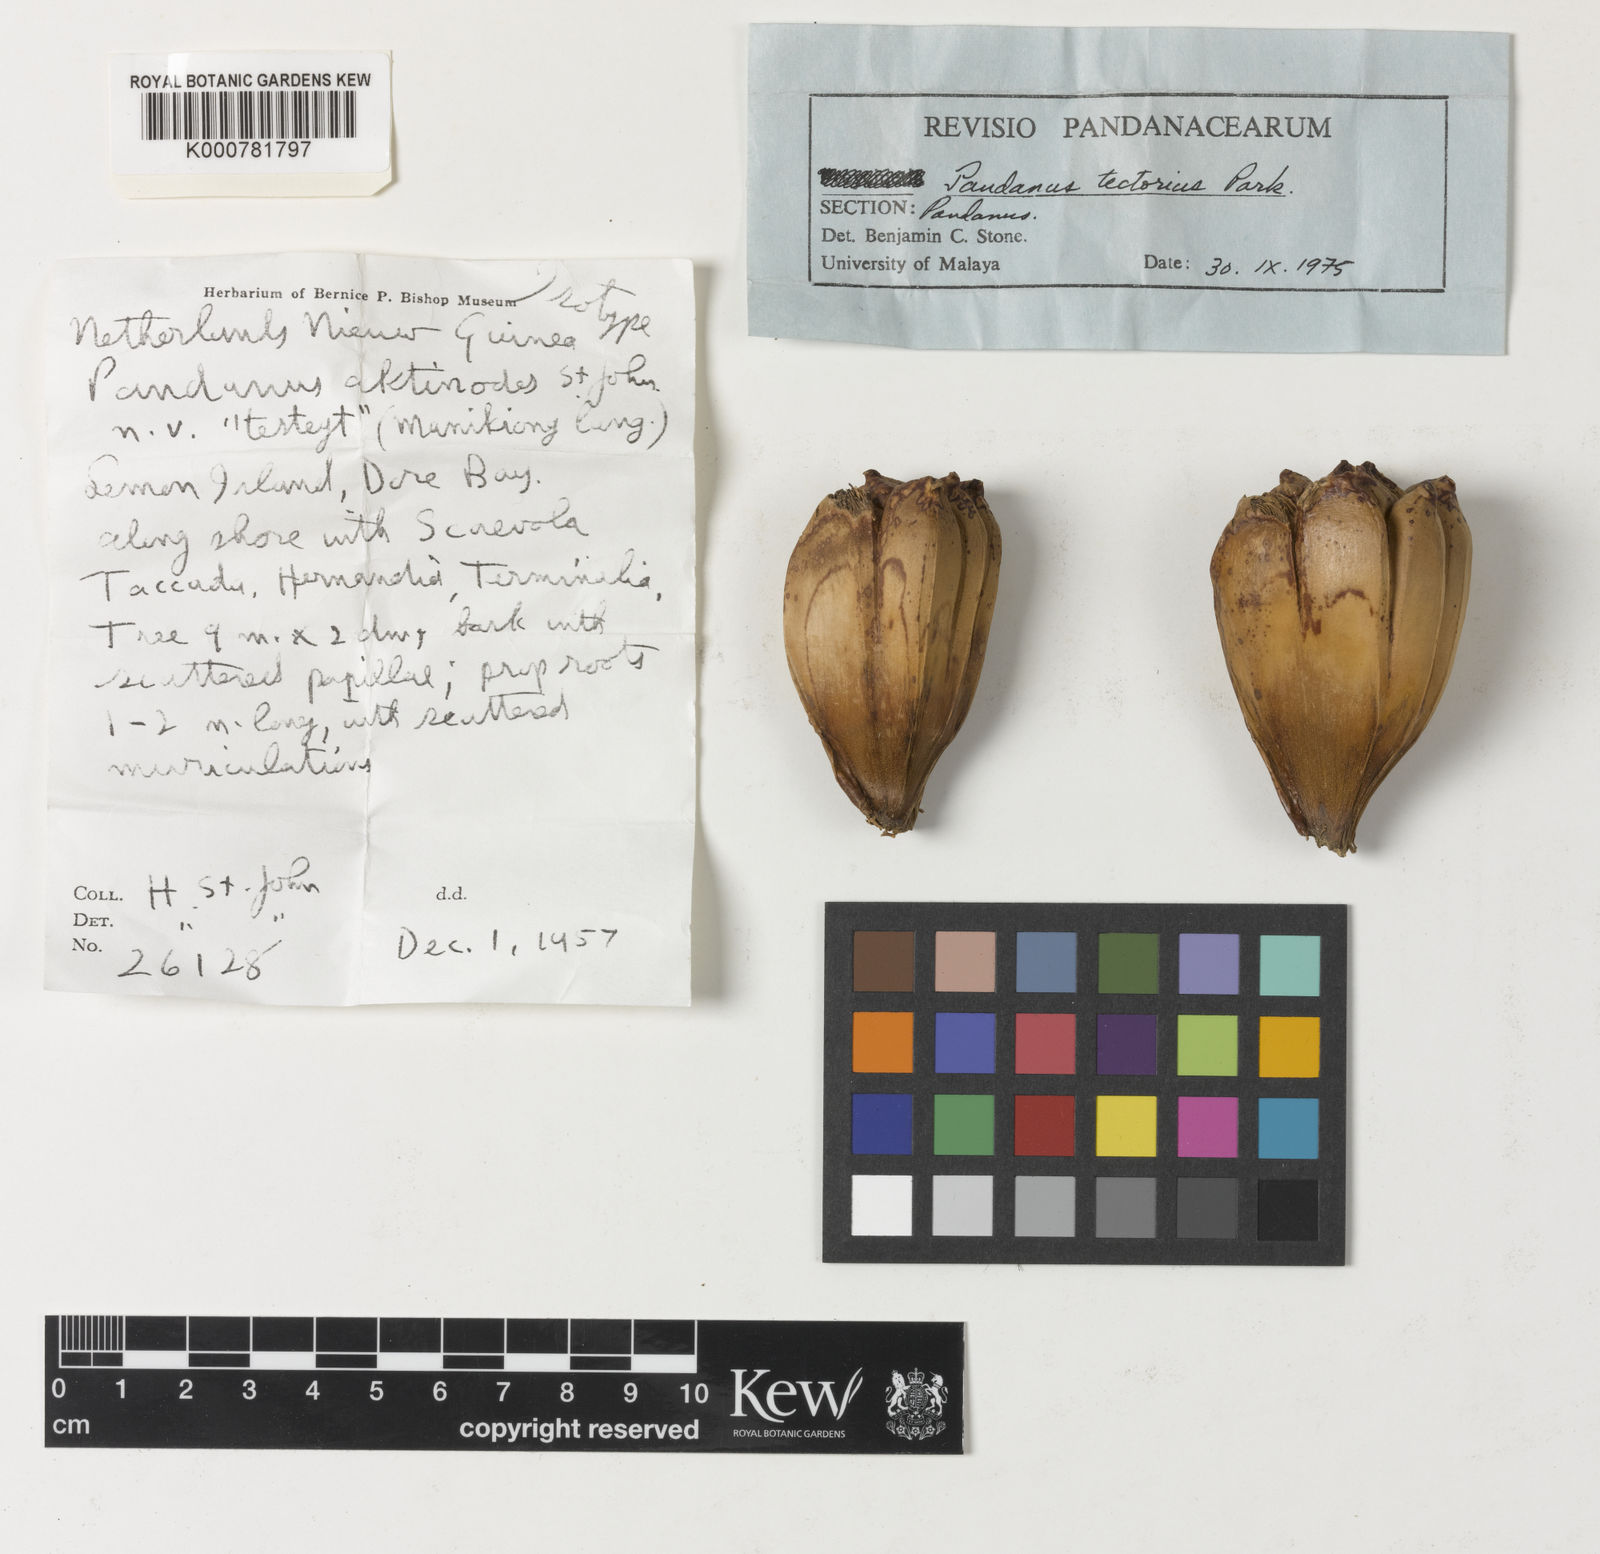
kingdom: Plantae
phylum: Tracheophyta
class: Liliopsida
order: Pandanales
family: Pandanaceae
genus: Pandanus
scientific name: Pandanus
